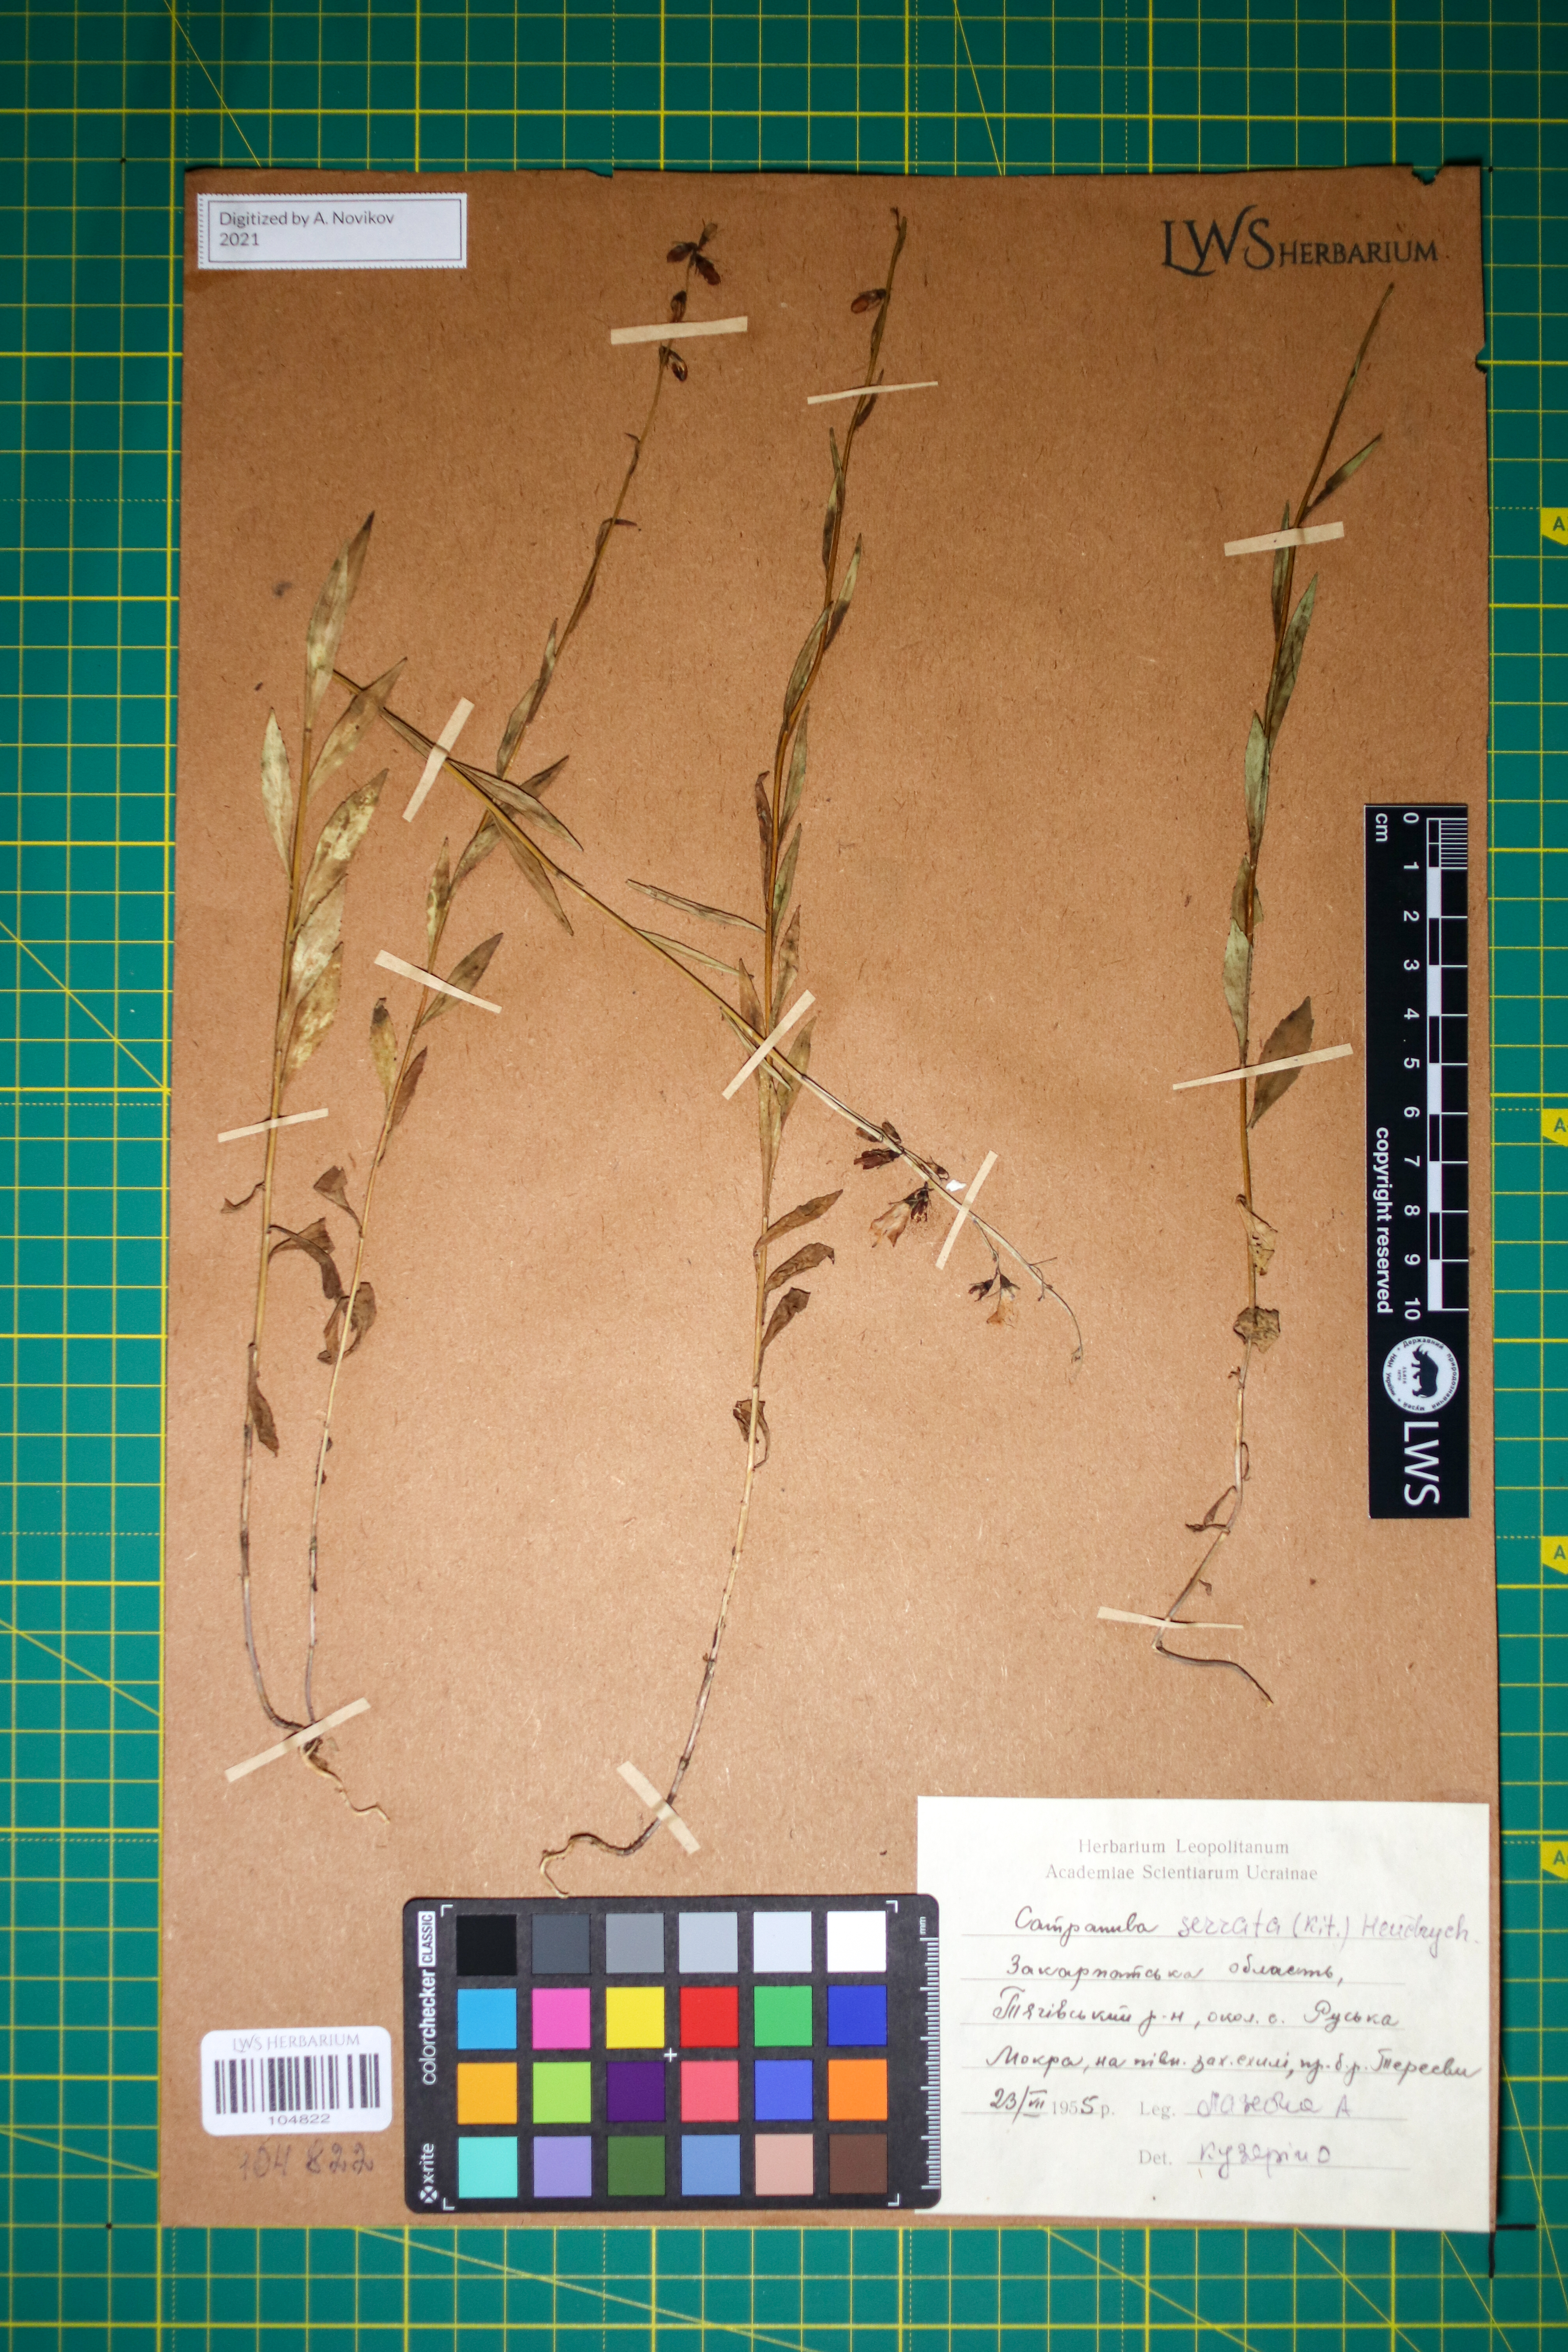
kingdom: Plantae
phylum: Tracheophyta
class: Magnoliopsida
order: Asterales
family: Campanulaceae
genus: Campanula
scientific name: Campanula serrata
